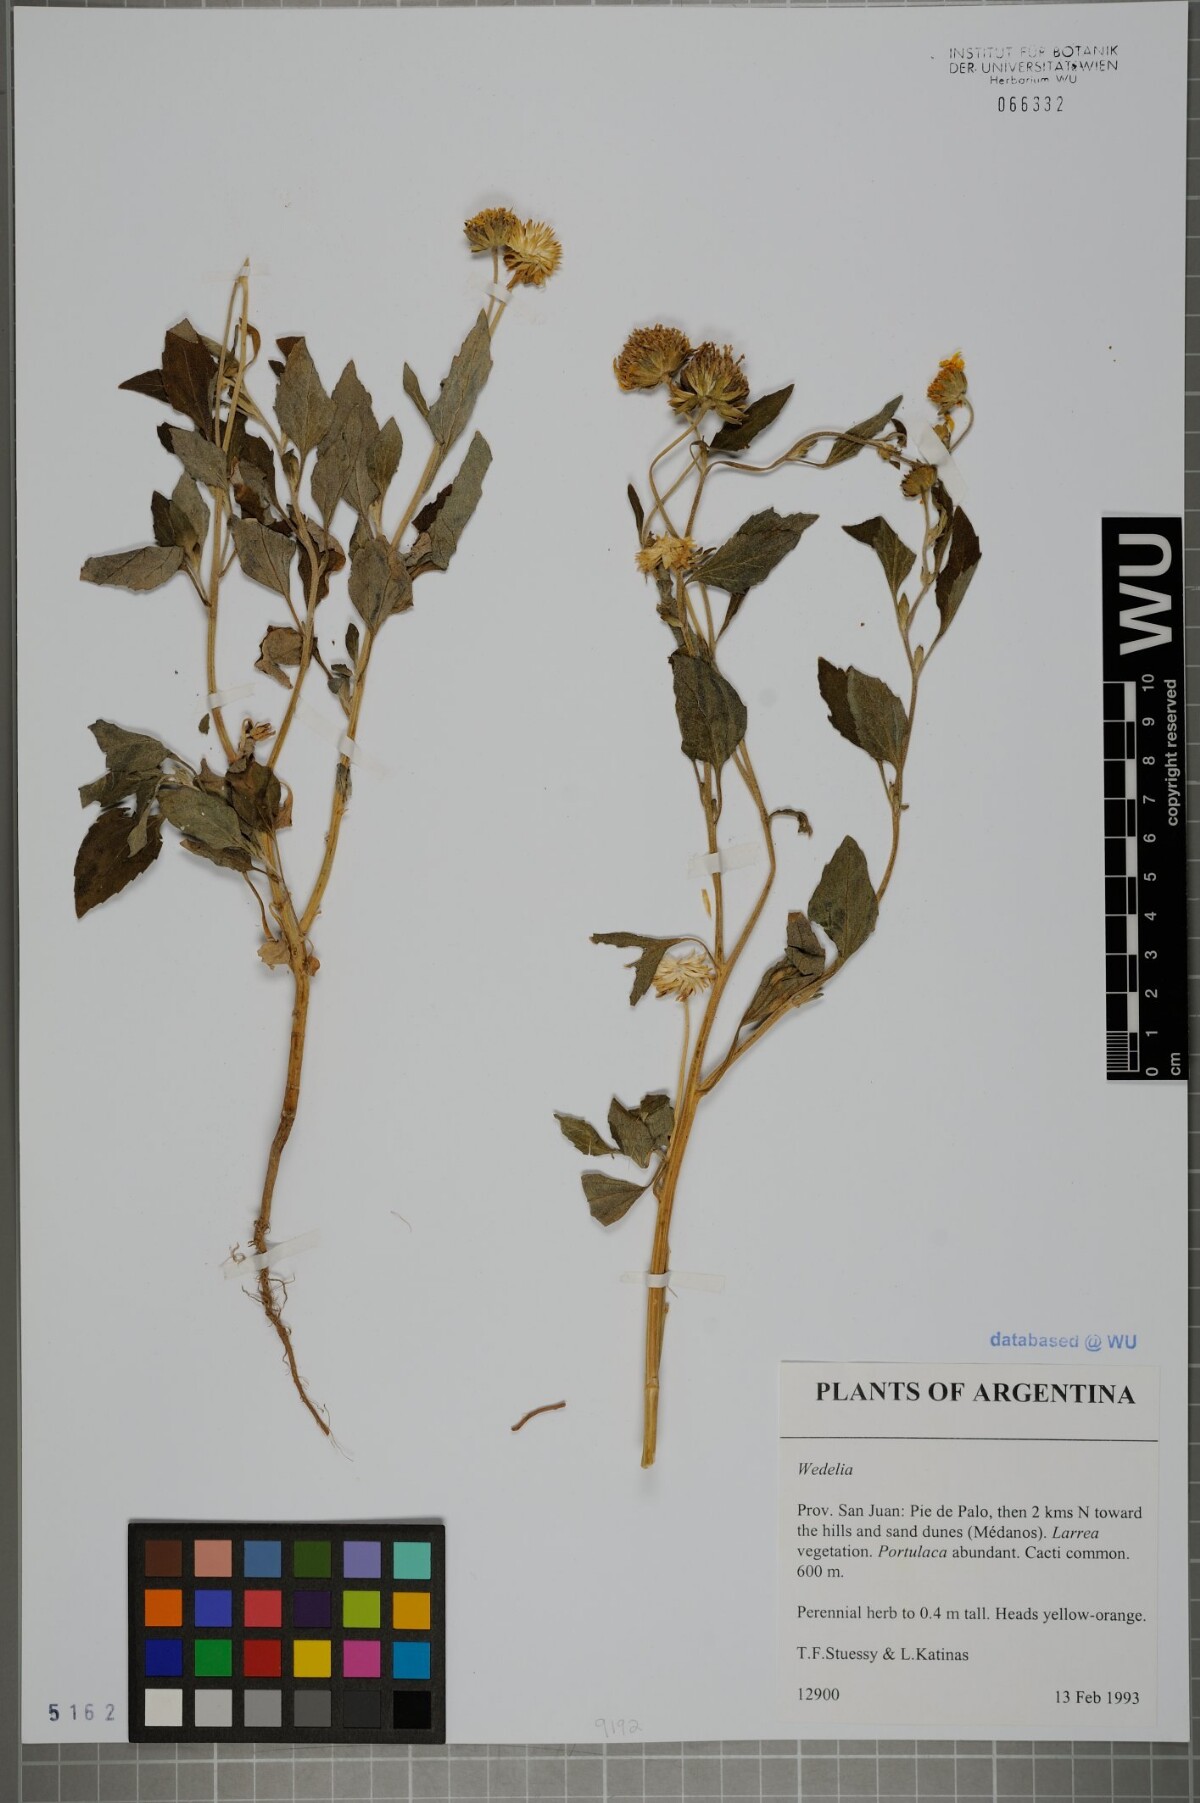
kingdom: Plantae
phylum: Tracheophyta
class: Magnoliopsida
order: Asterales
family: Asteraceae
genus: Wedelia
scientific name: Wedelia
